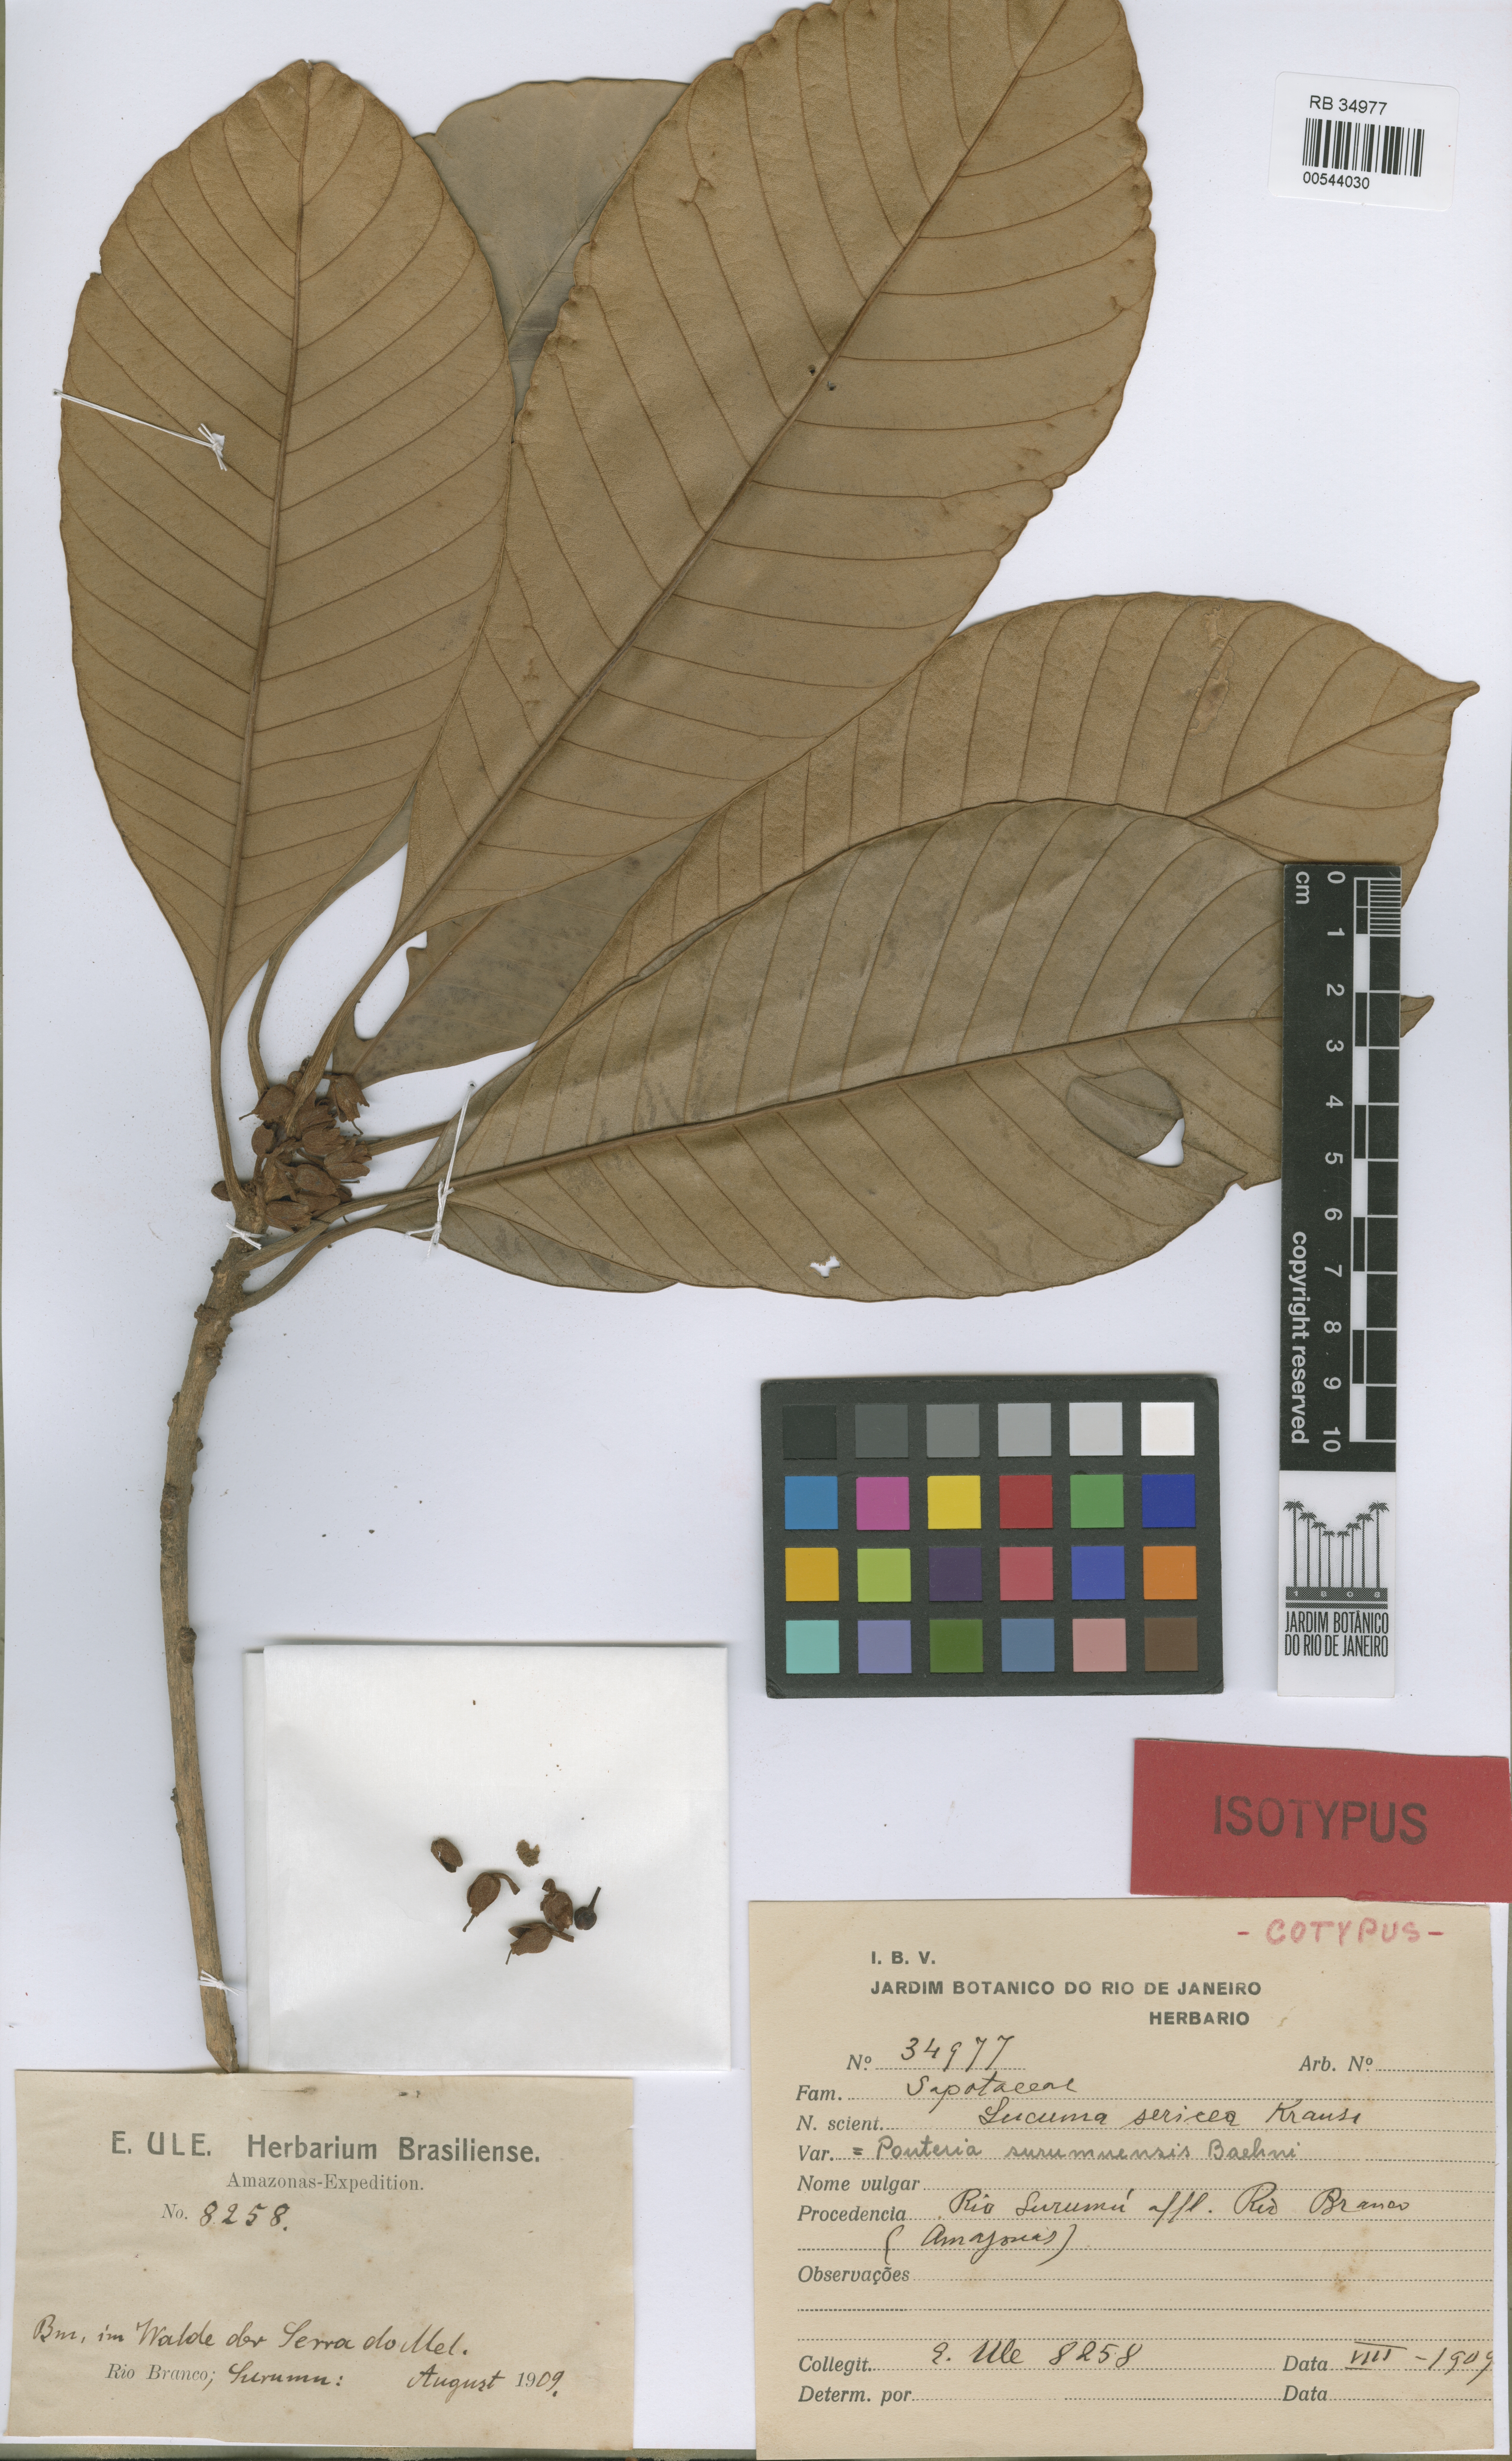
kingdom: Plantae
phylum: Tracheophyta
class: Magnoliopsida
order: Ericales
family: Sapotaceae
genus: Pouteria
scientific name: Pouteria surumuensis
